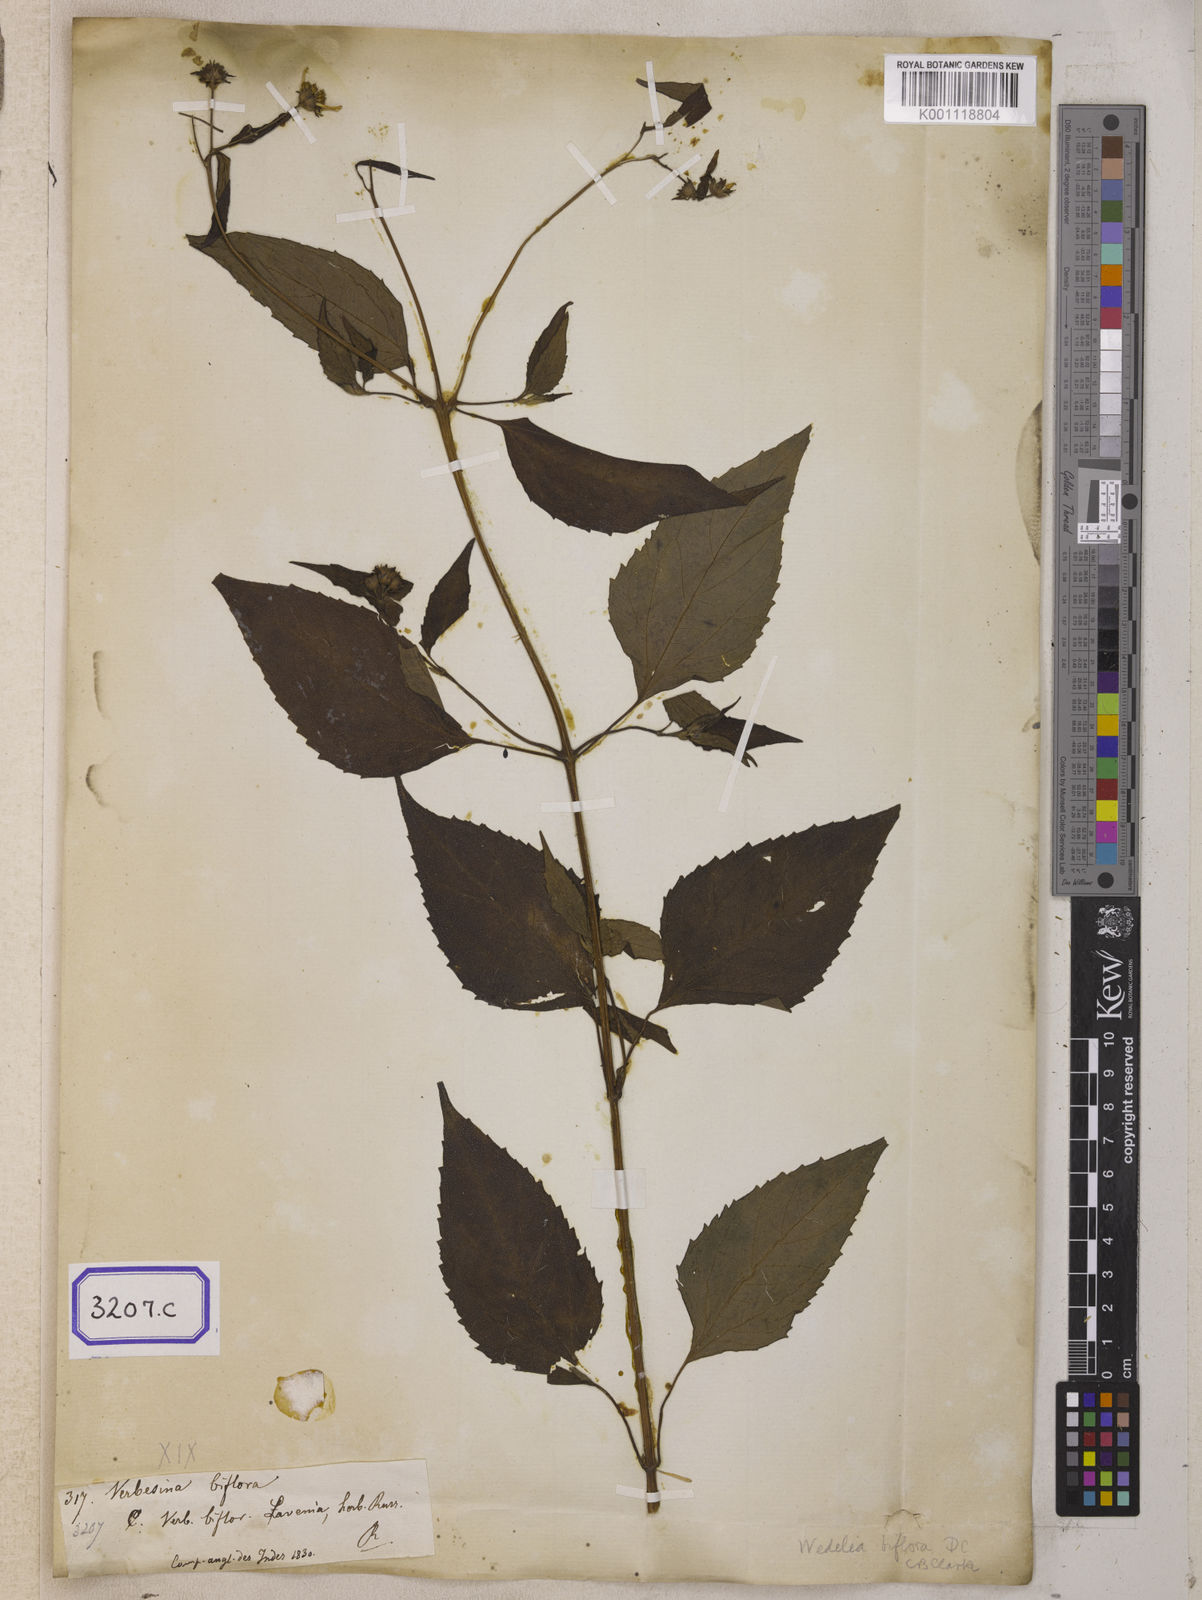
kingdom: Plantae
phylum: Tracheophyta
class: Magnoliopsida
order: Asterales
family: Asteraceae
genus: Indocypraea
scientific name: Indocypraea montana
